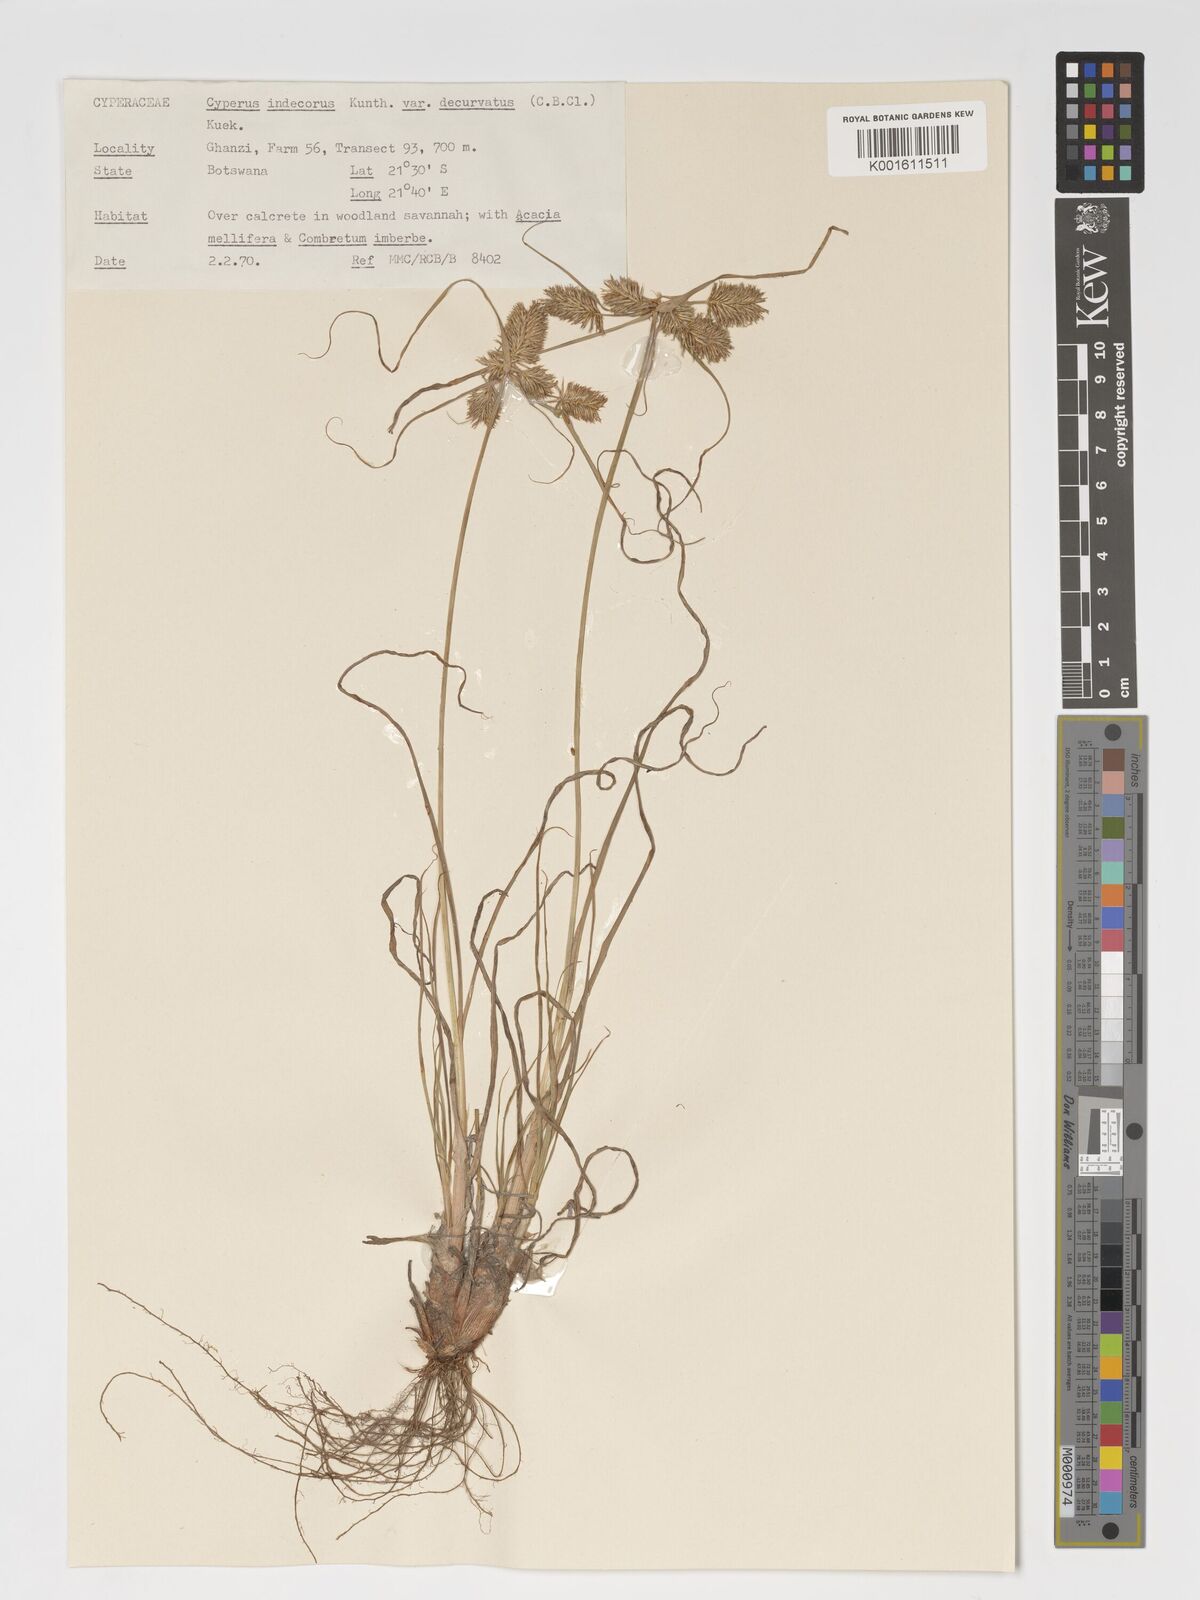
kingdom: Plantae
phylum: Tracheophyta
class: Liliopsida
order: Poales
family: Cyperaceae
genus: Cyperus
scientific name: Cyperus indecorus
